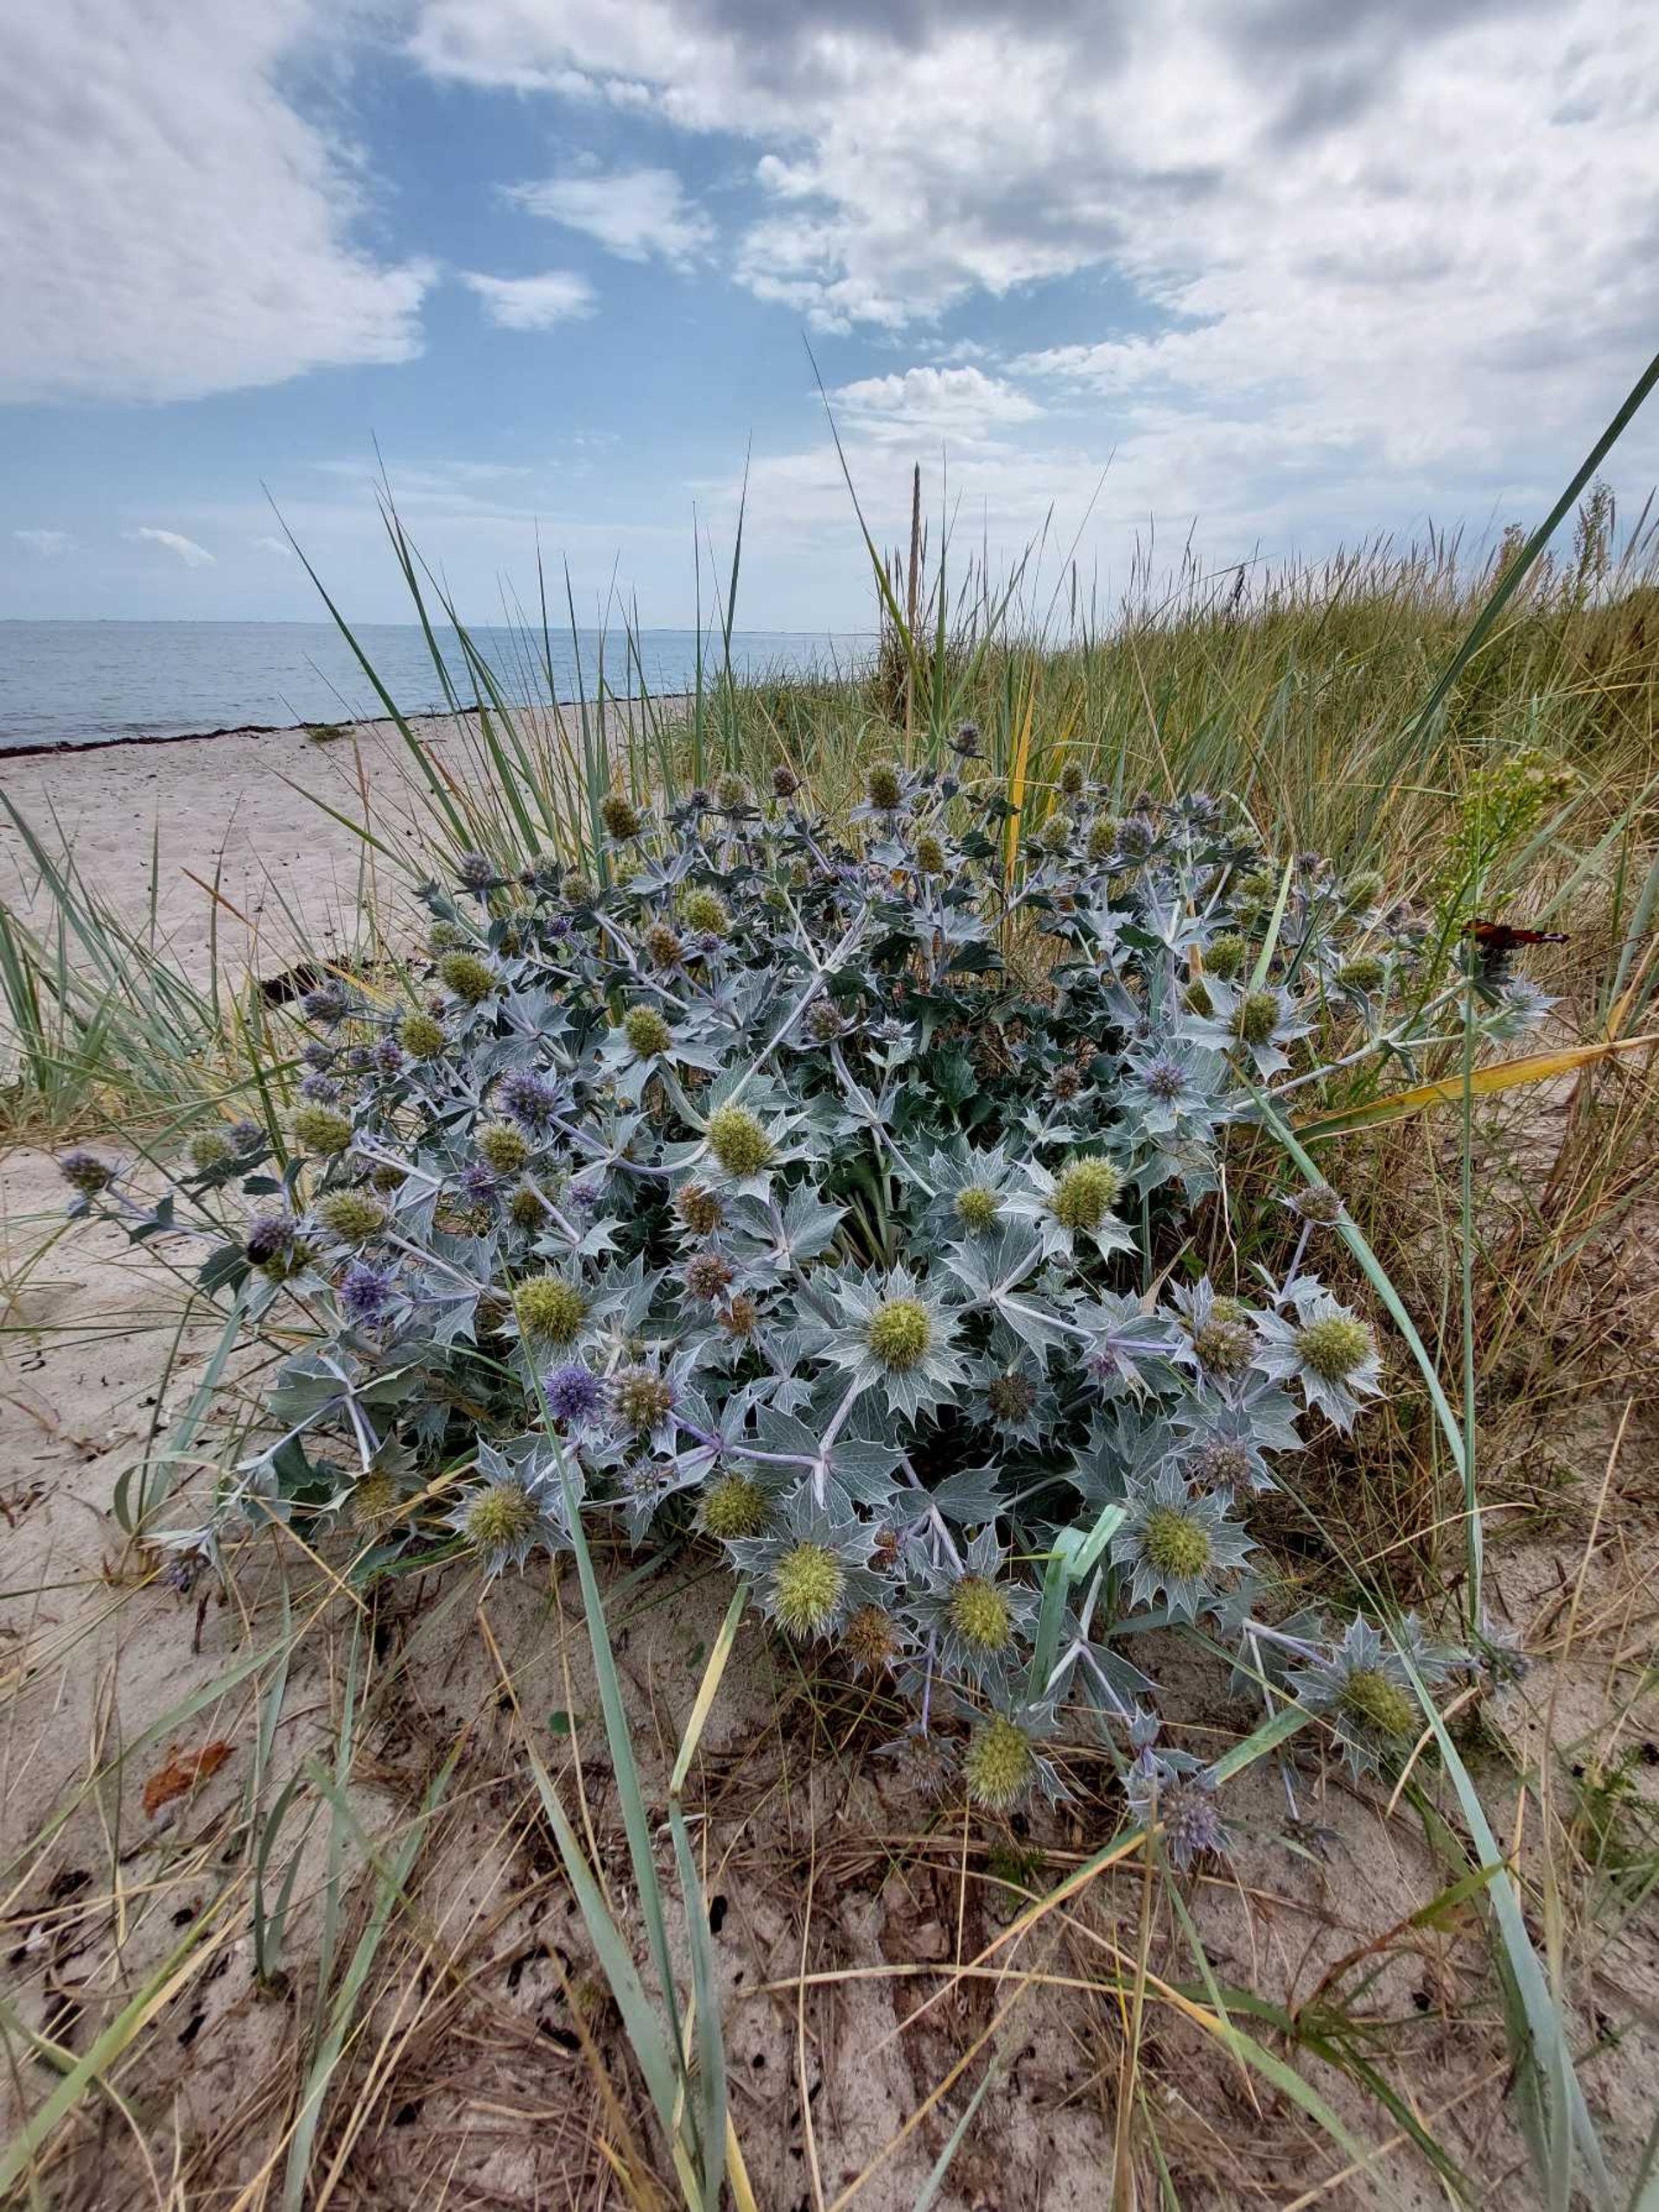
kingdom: Plantae
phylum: Tracheophyta
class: Magnoliopsida
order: Apiales
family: Apiaceae
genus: Eryngium
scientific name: Eryngium maritimum
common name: Strand-mandstro
